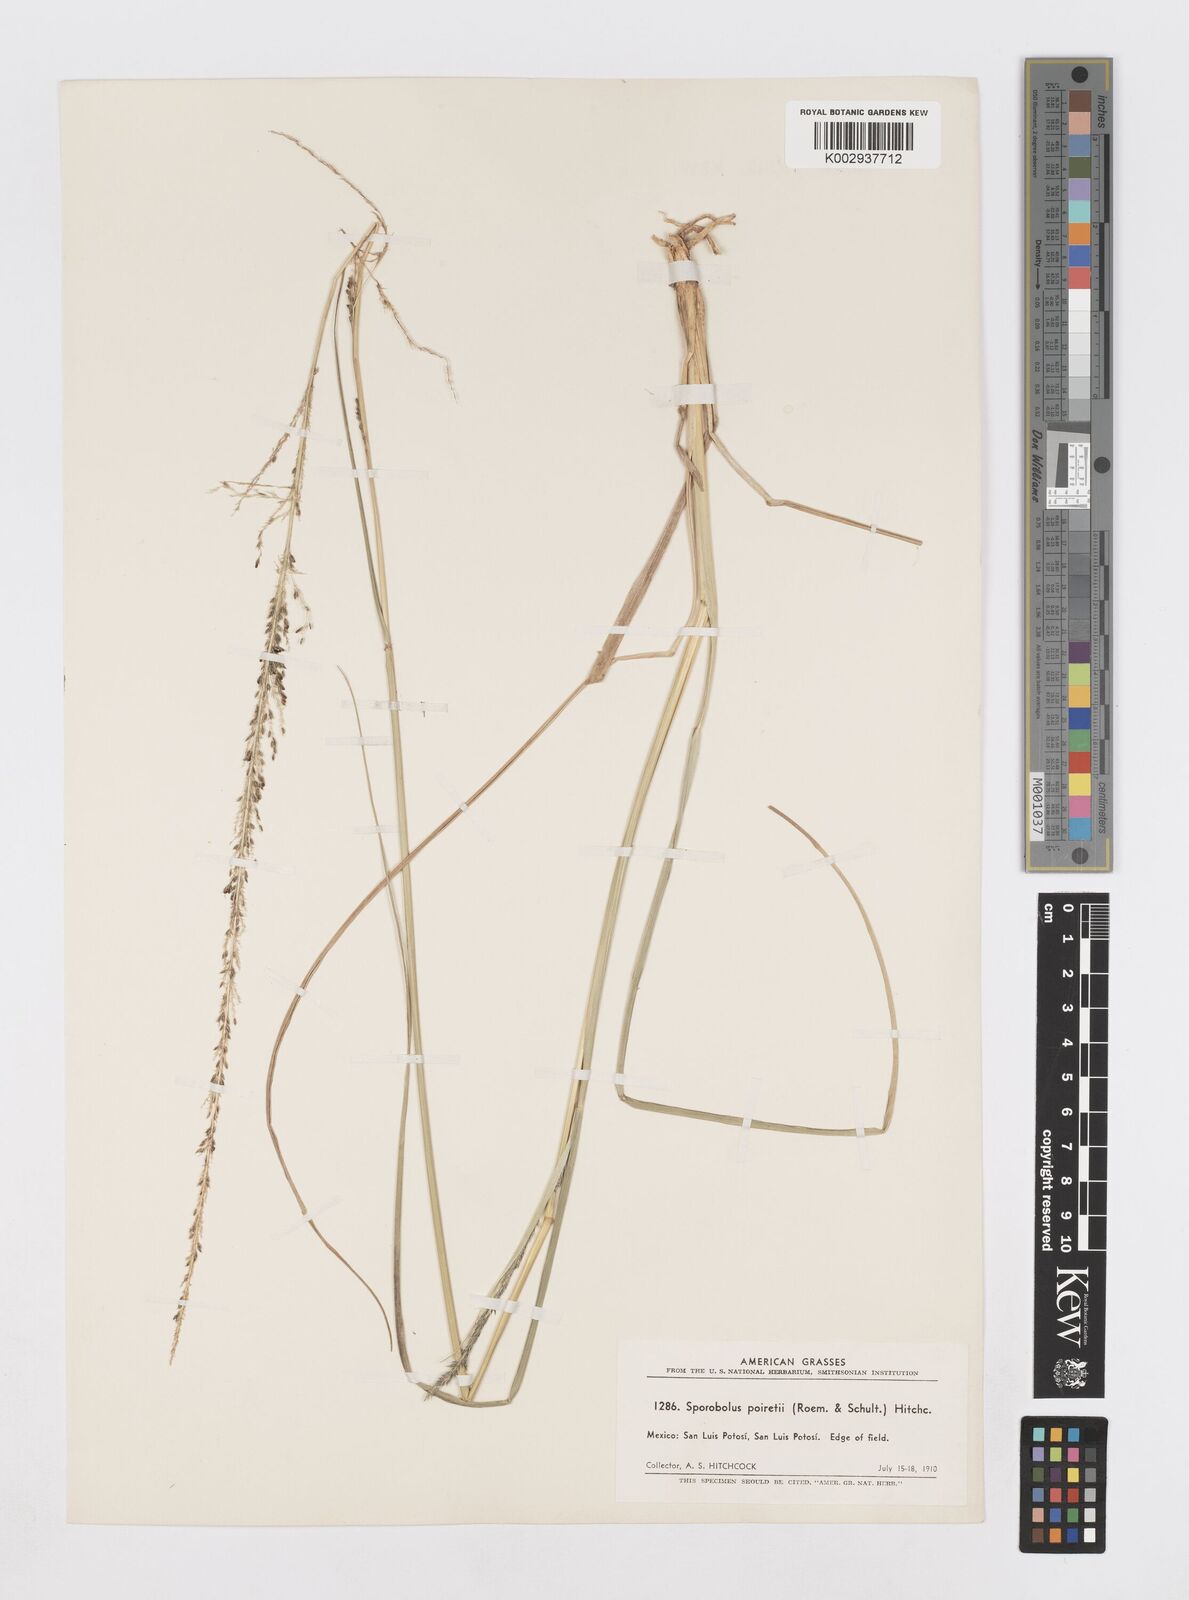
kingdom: Plantae
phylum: Tracheophyta
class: Liliopsida
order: Poales
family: Poaceae
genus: Sporobolus
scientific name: Sporobolus junceus
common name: Lizard grass
